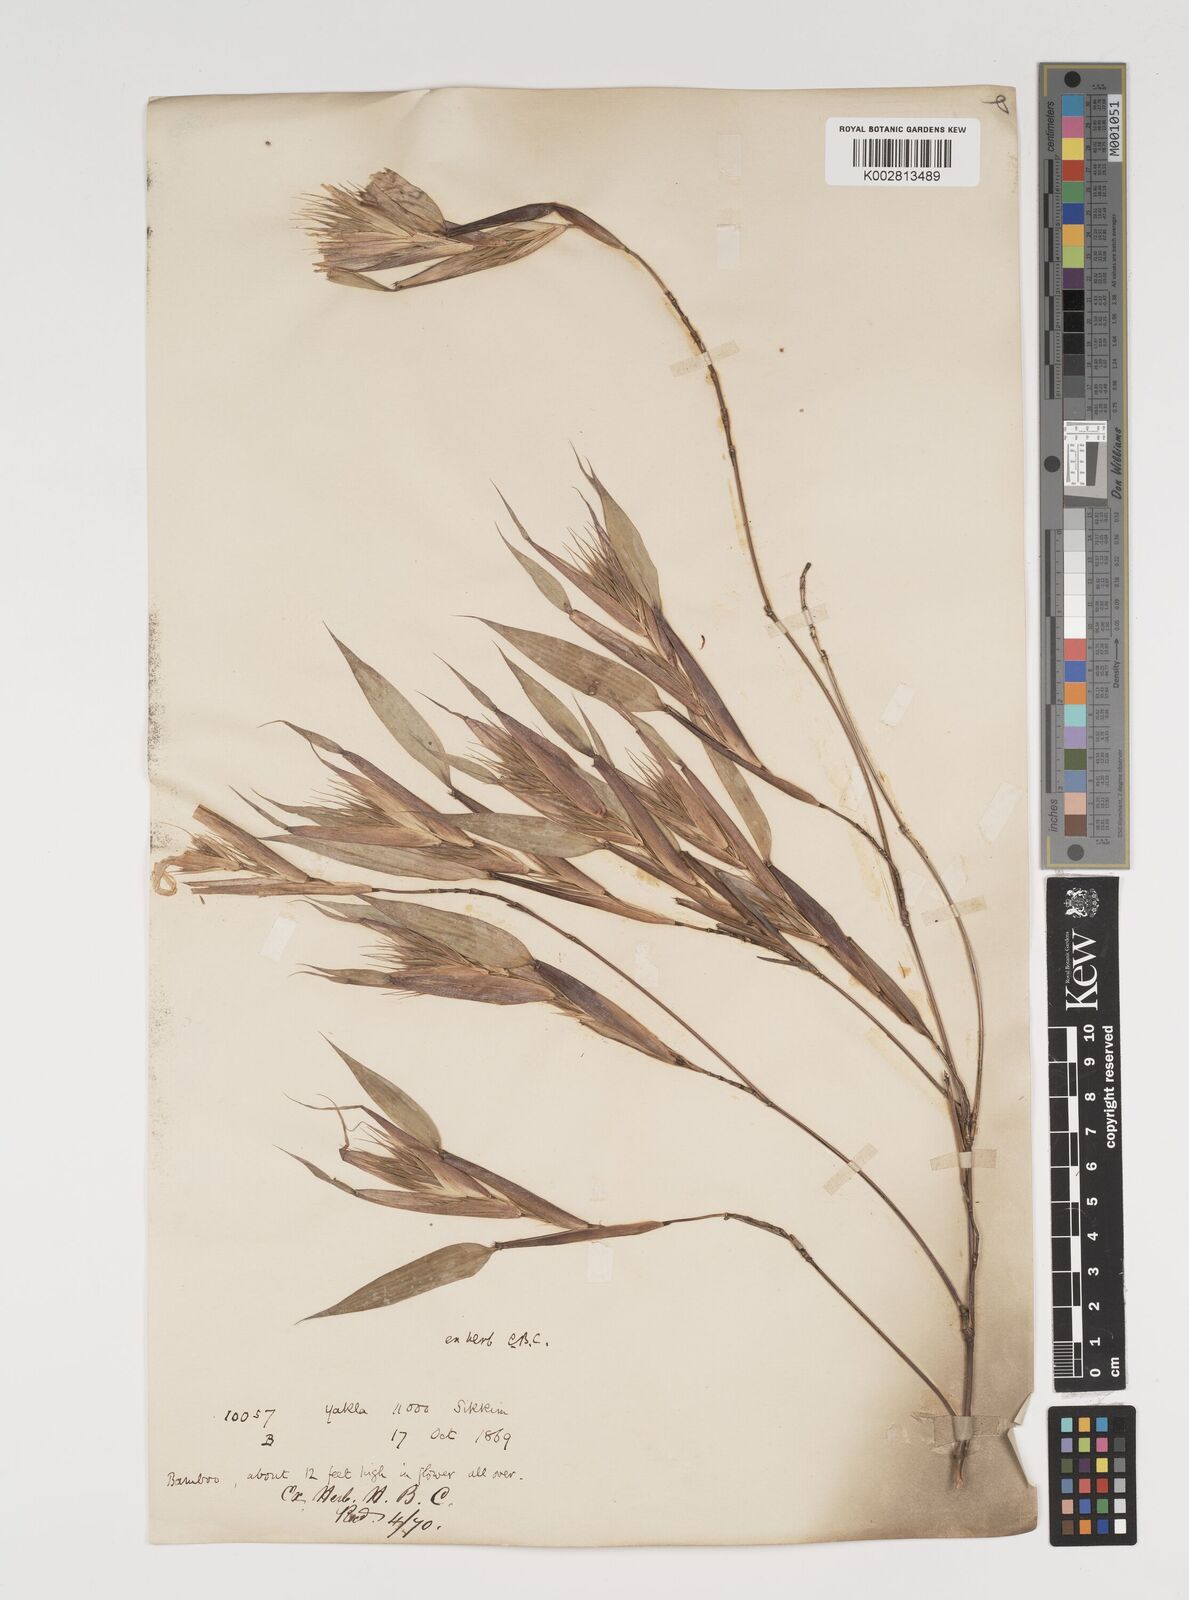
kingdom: Plantae
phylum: Tracheophyta
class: Liliopsida
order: Poales
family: Poaceae
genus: Thamnocalamus
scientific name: Thamnocalamus spathiflorus
